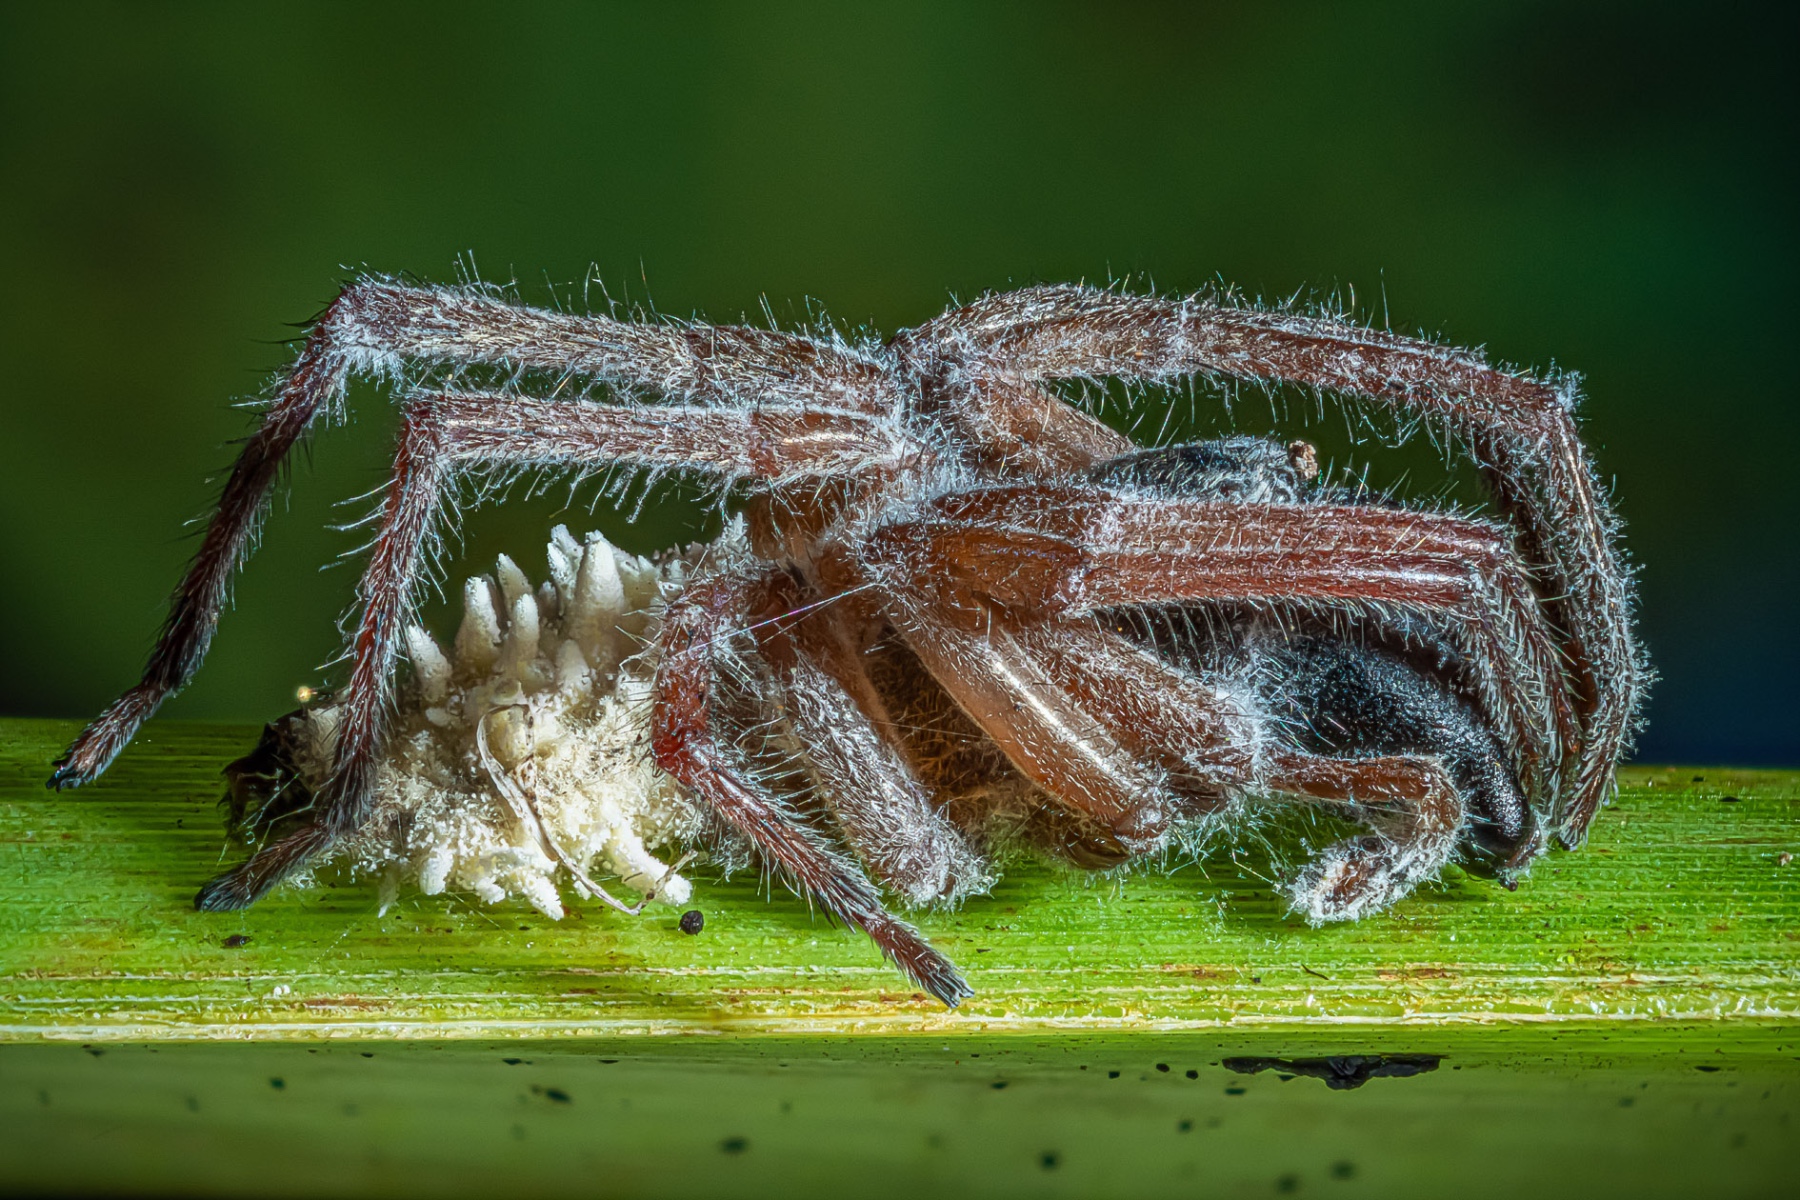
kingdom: Fungi
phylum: Ascomycota
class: Sordariomycetes
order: Hypocreales
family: Cordycipitaceae
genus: Gibellula
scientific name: Gibellula pulchra
